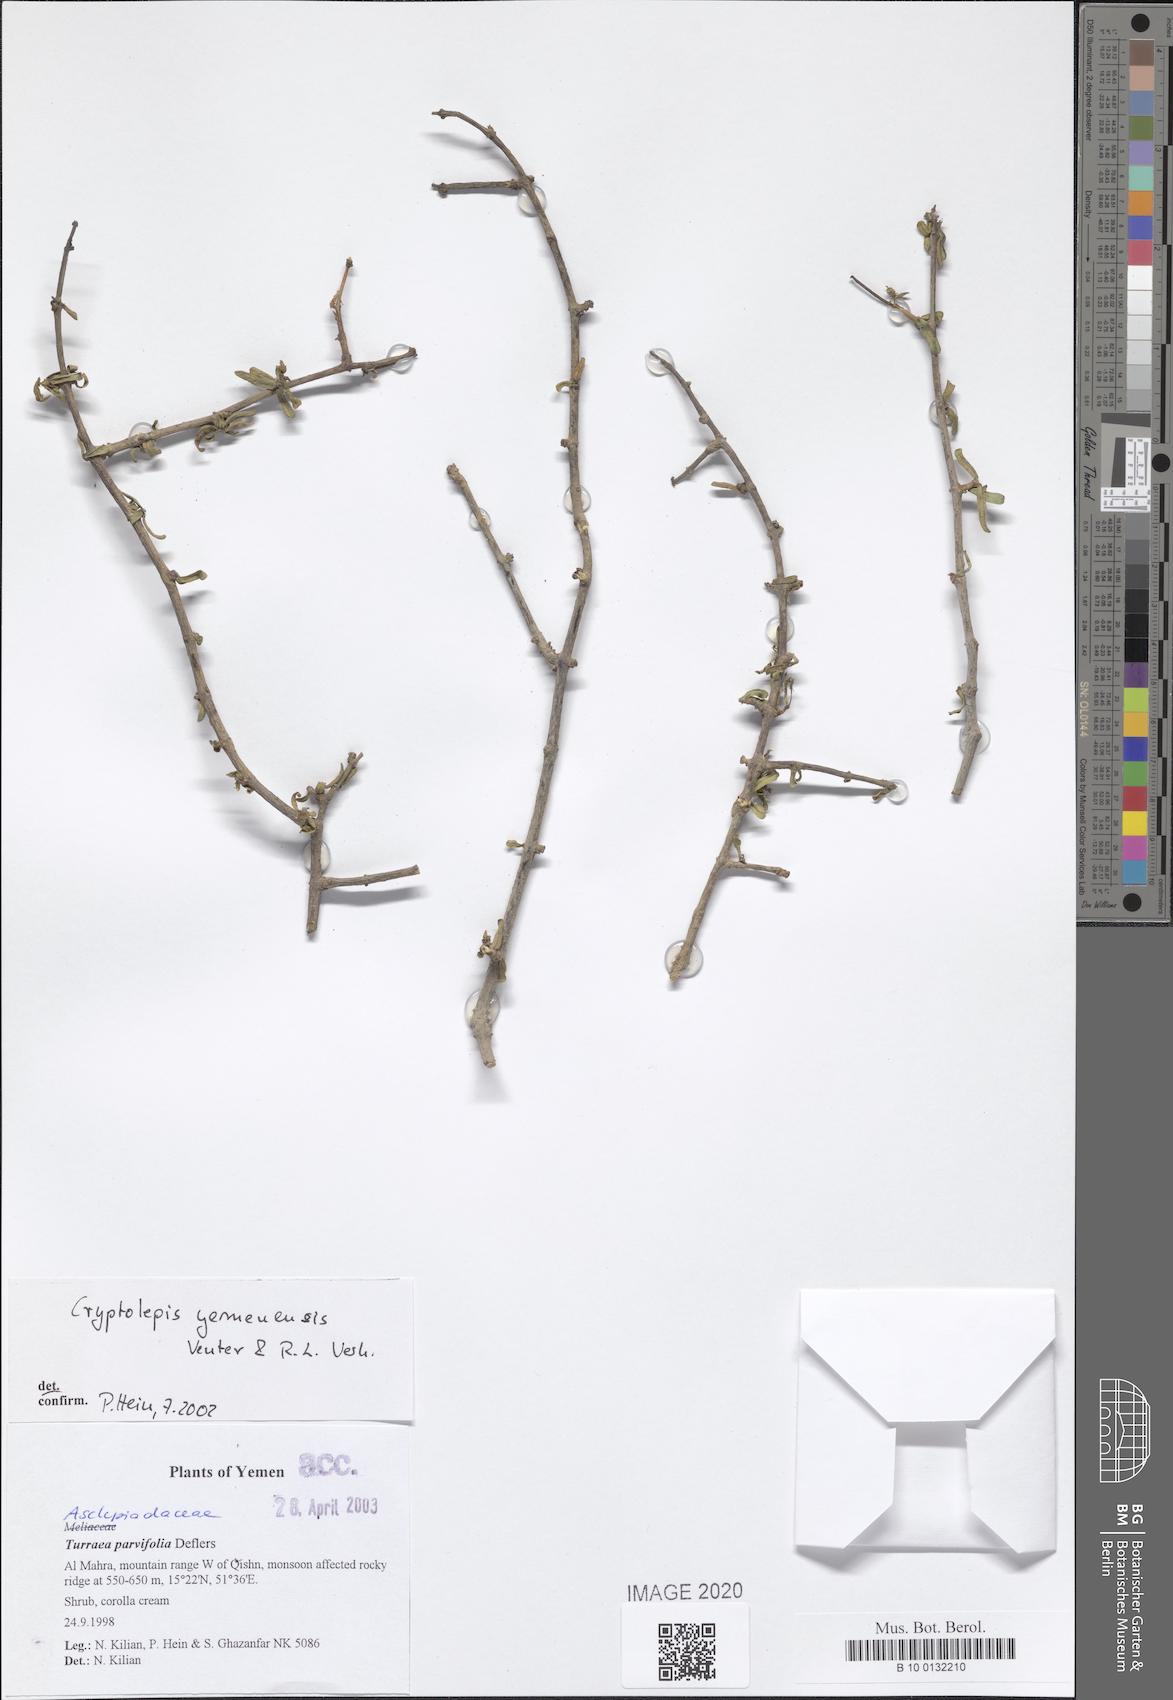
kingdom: Plantae
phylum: Tracheophyta
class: Magnoliopsida
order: Gentianales
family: Apocynaceae
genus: Cryptolepis
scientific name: Cryptolepis yemenensis
